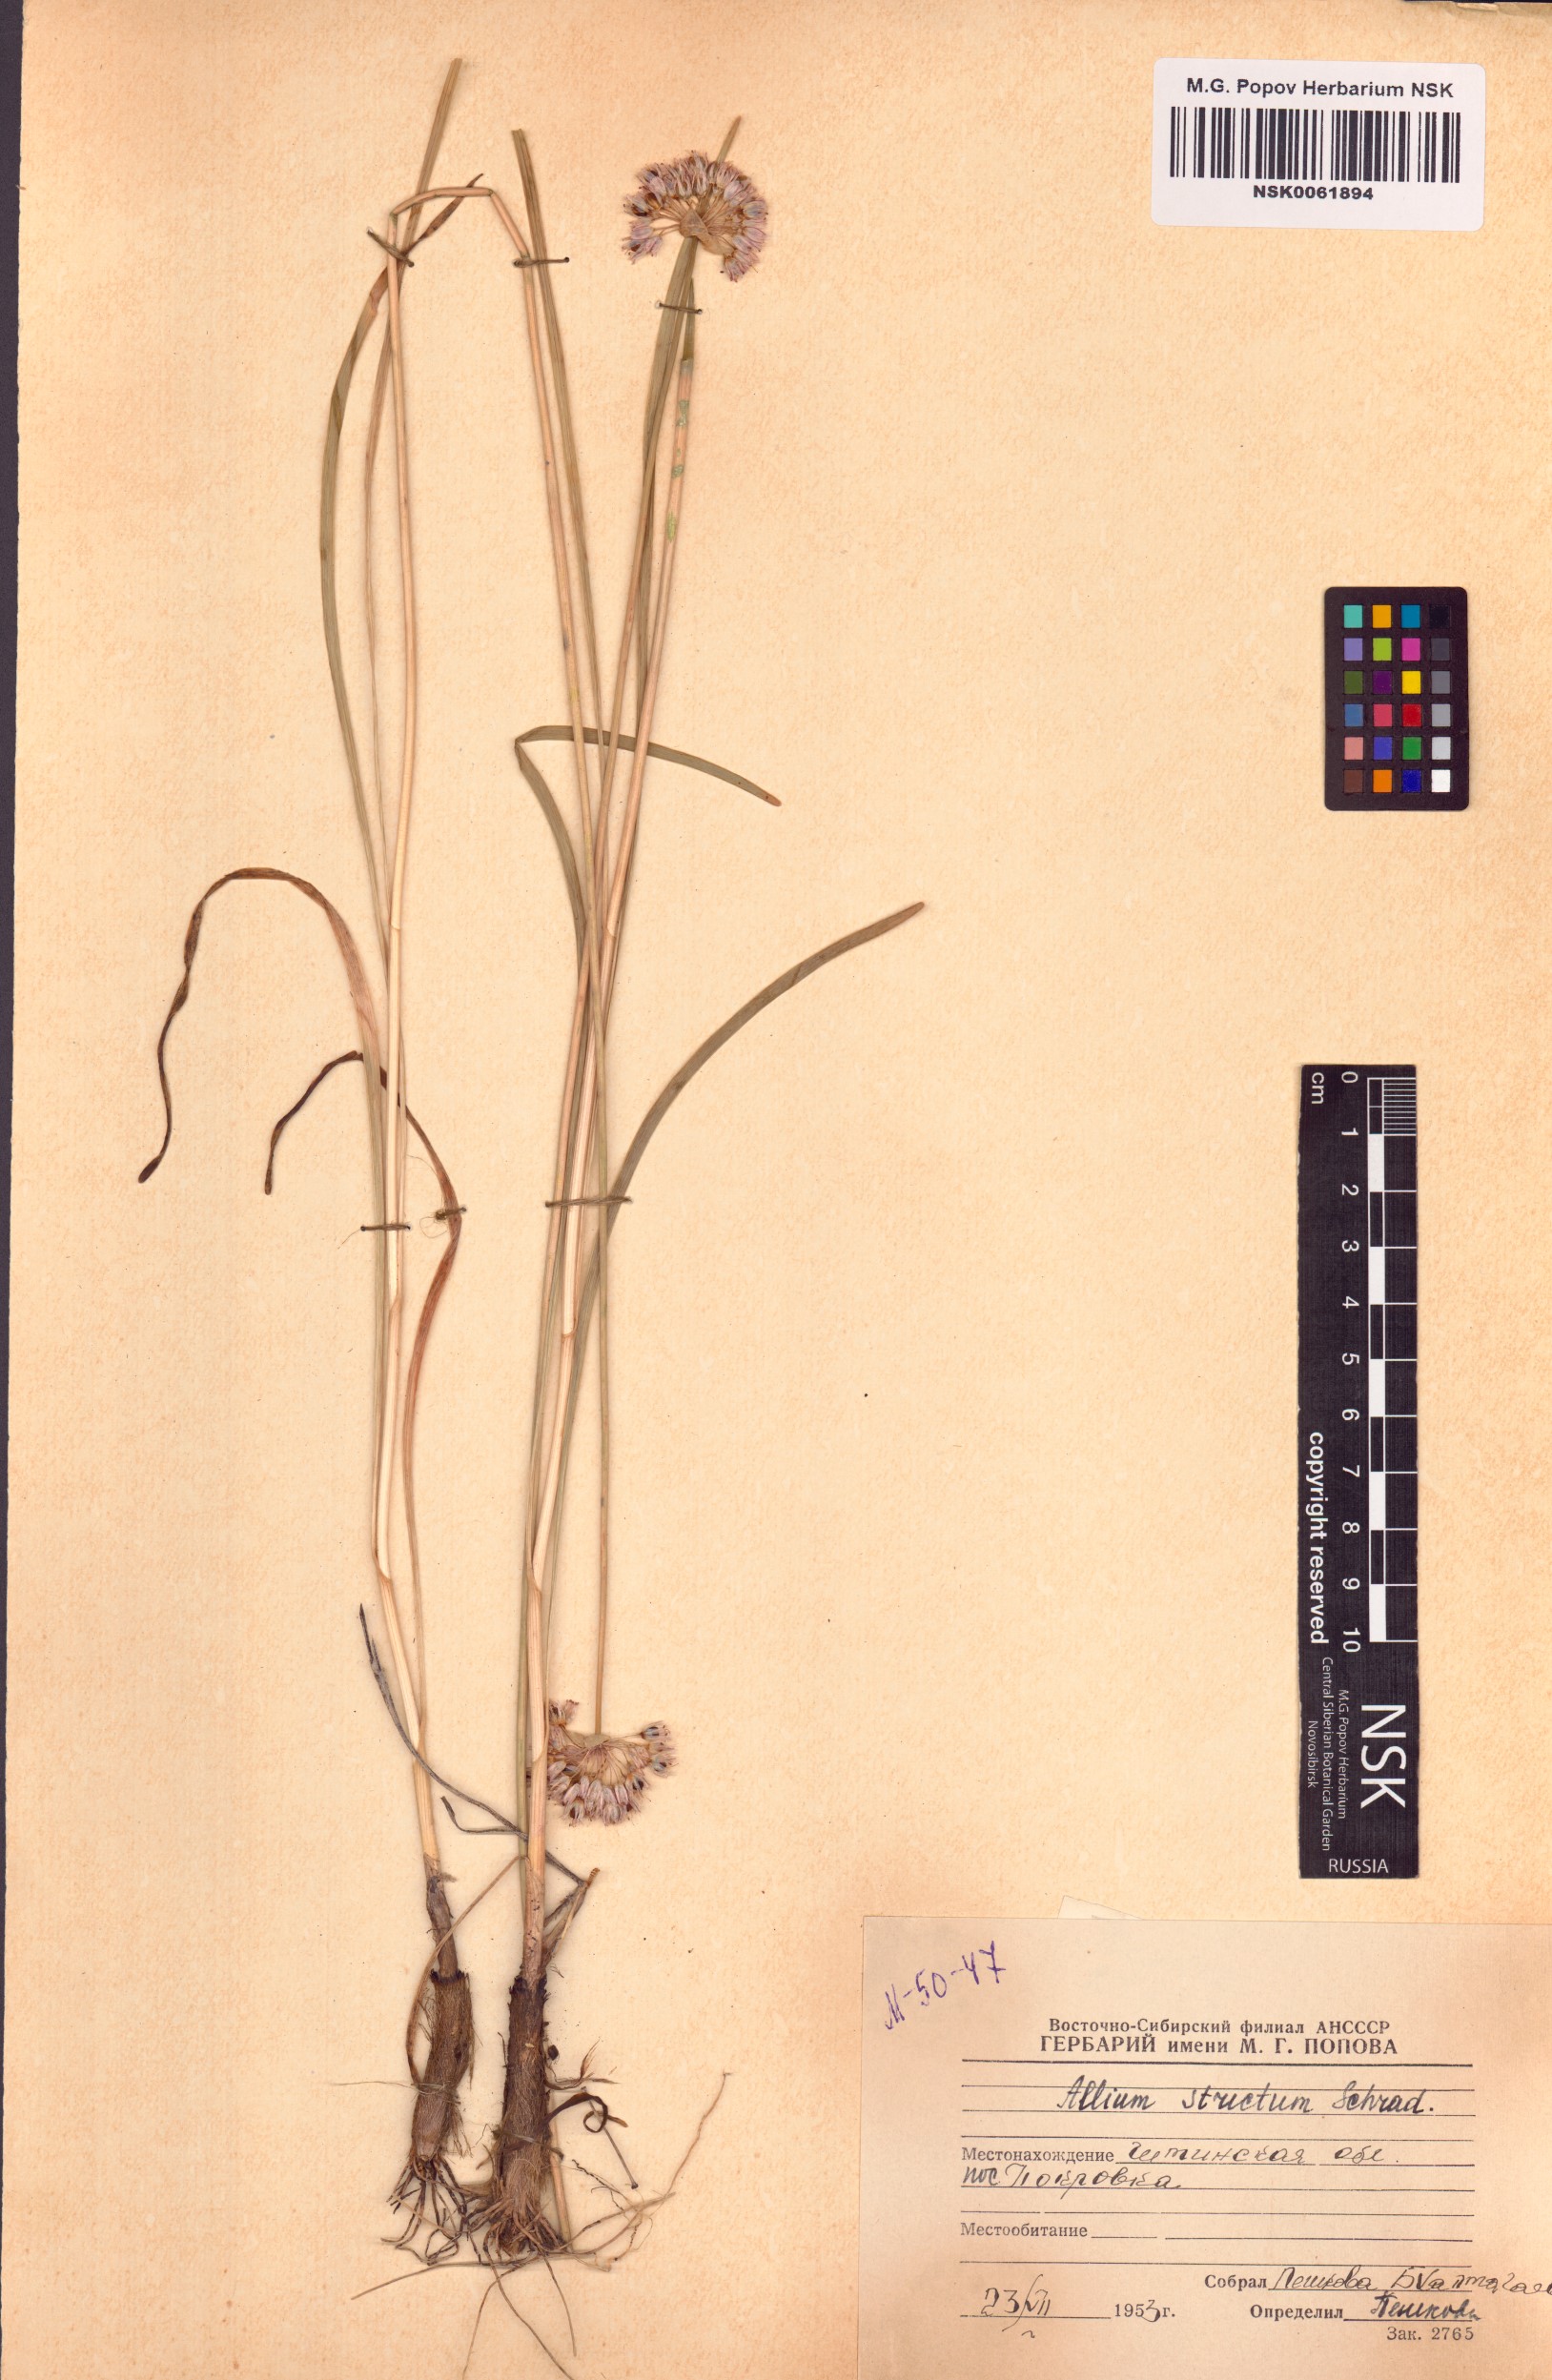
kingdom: Plantae
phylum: Tracheophyta
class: Liliopsida
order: Asparagales
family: Amaryllidaceae
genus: Allium
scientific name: Allium strictum
